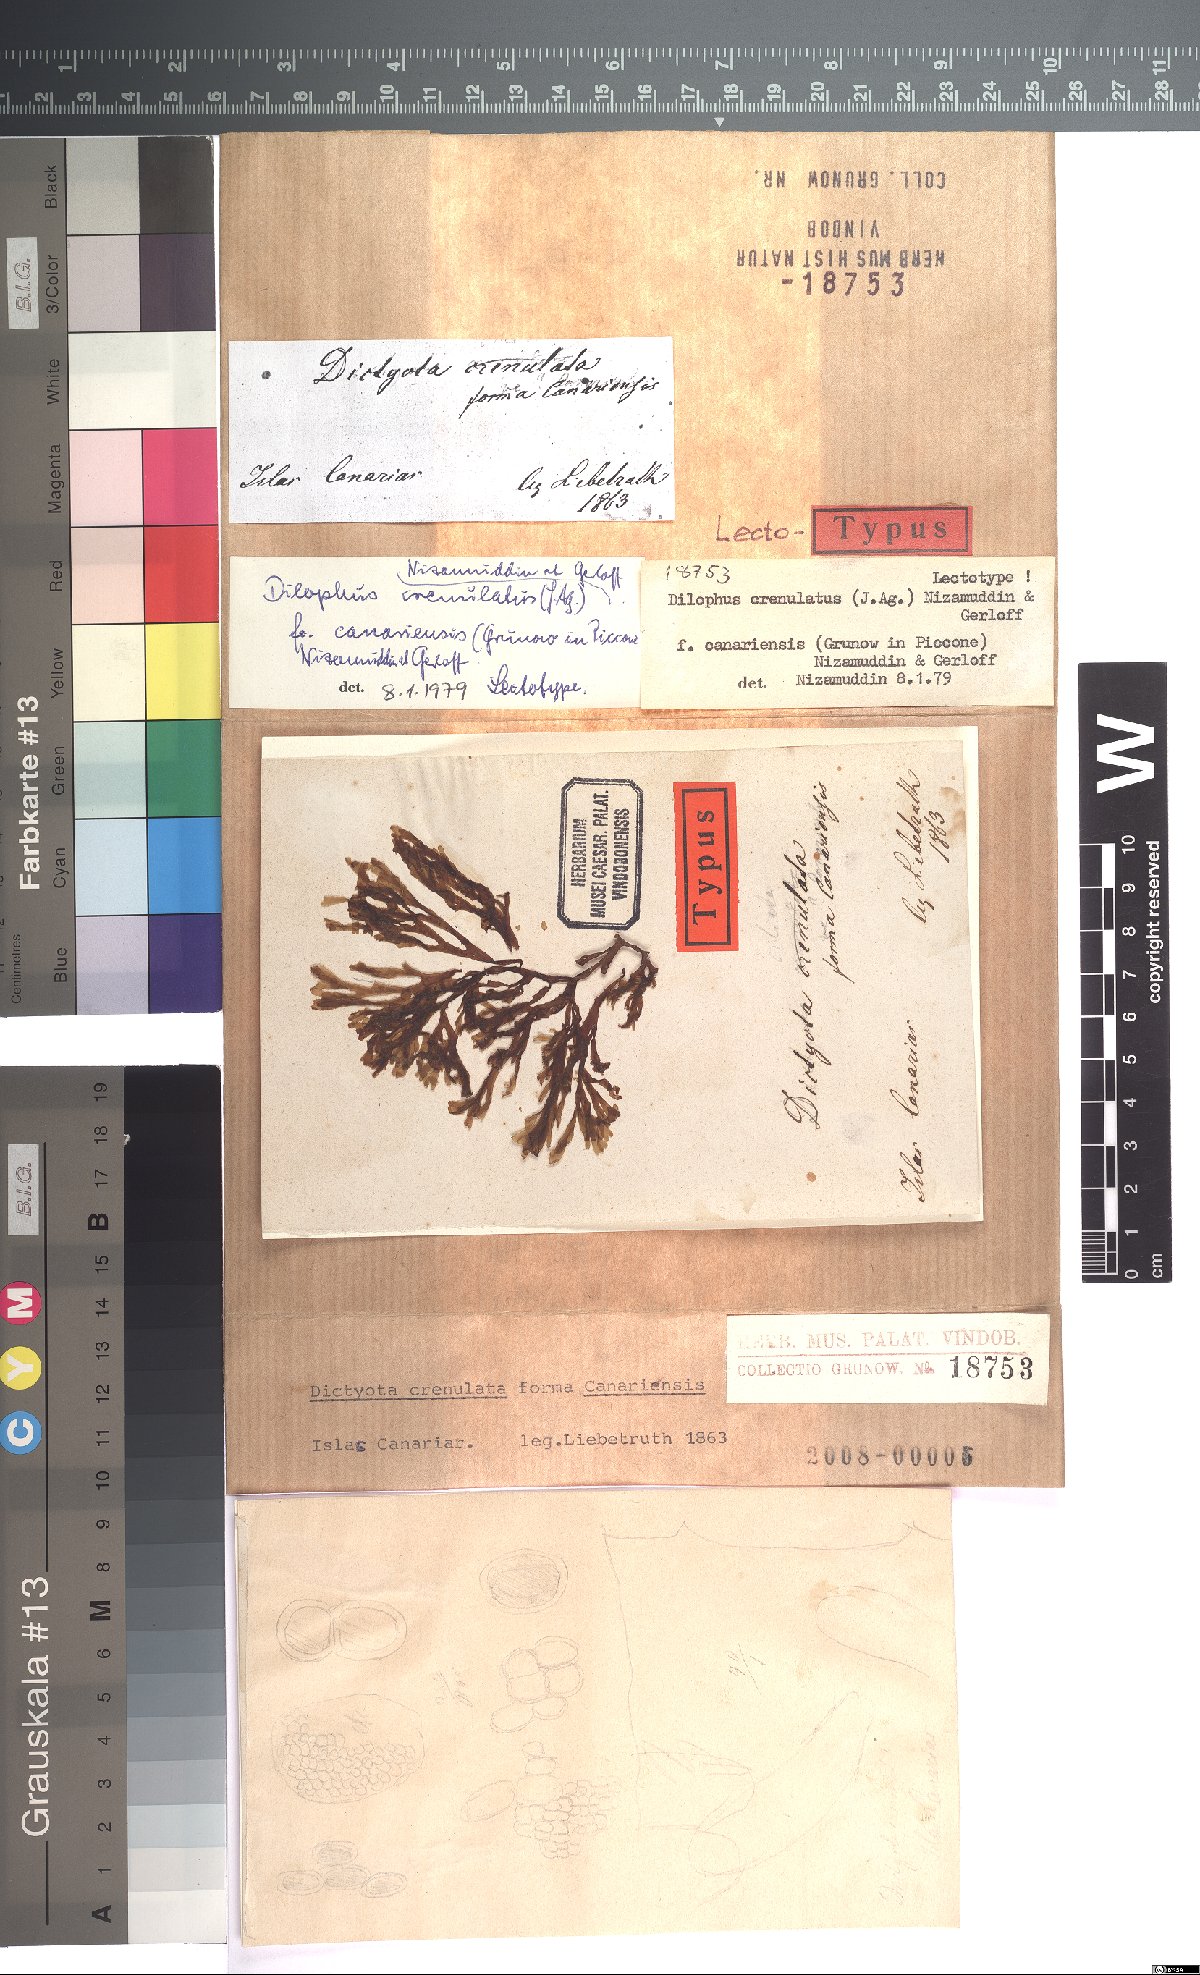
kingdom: Chromista
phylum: Ochrophyta
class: Phaeophyceae
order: Dictyotales
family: Dictyotaceae
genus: Dictyota
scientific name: Dictyota crenulata
